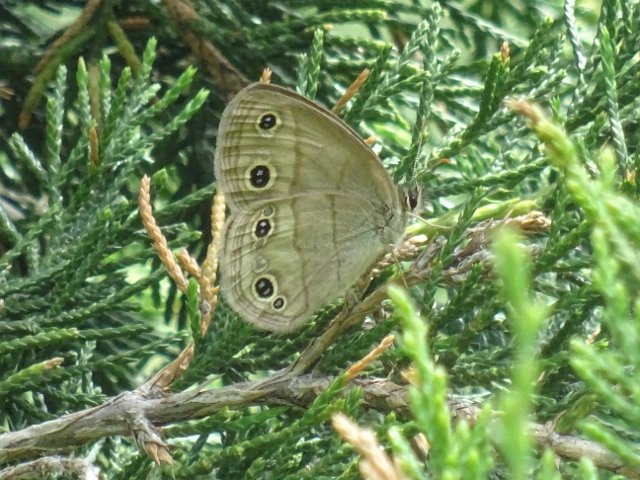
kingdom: Animalia
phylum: Arthropoda
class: Insecta
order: Lepidoptera
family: Nymphalidae
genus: Euptychia
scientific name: Euptychia cymela
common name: Little Wood Satyr
